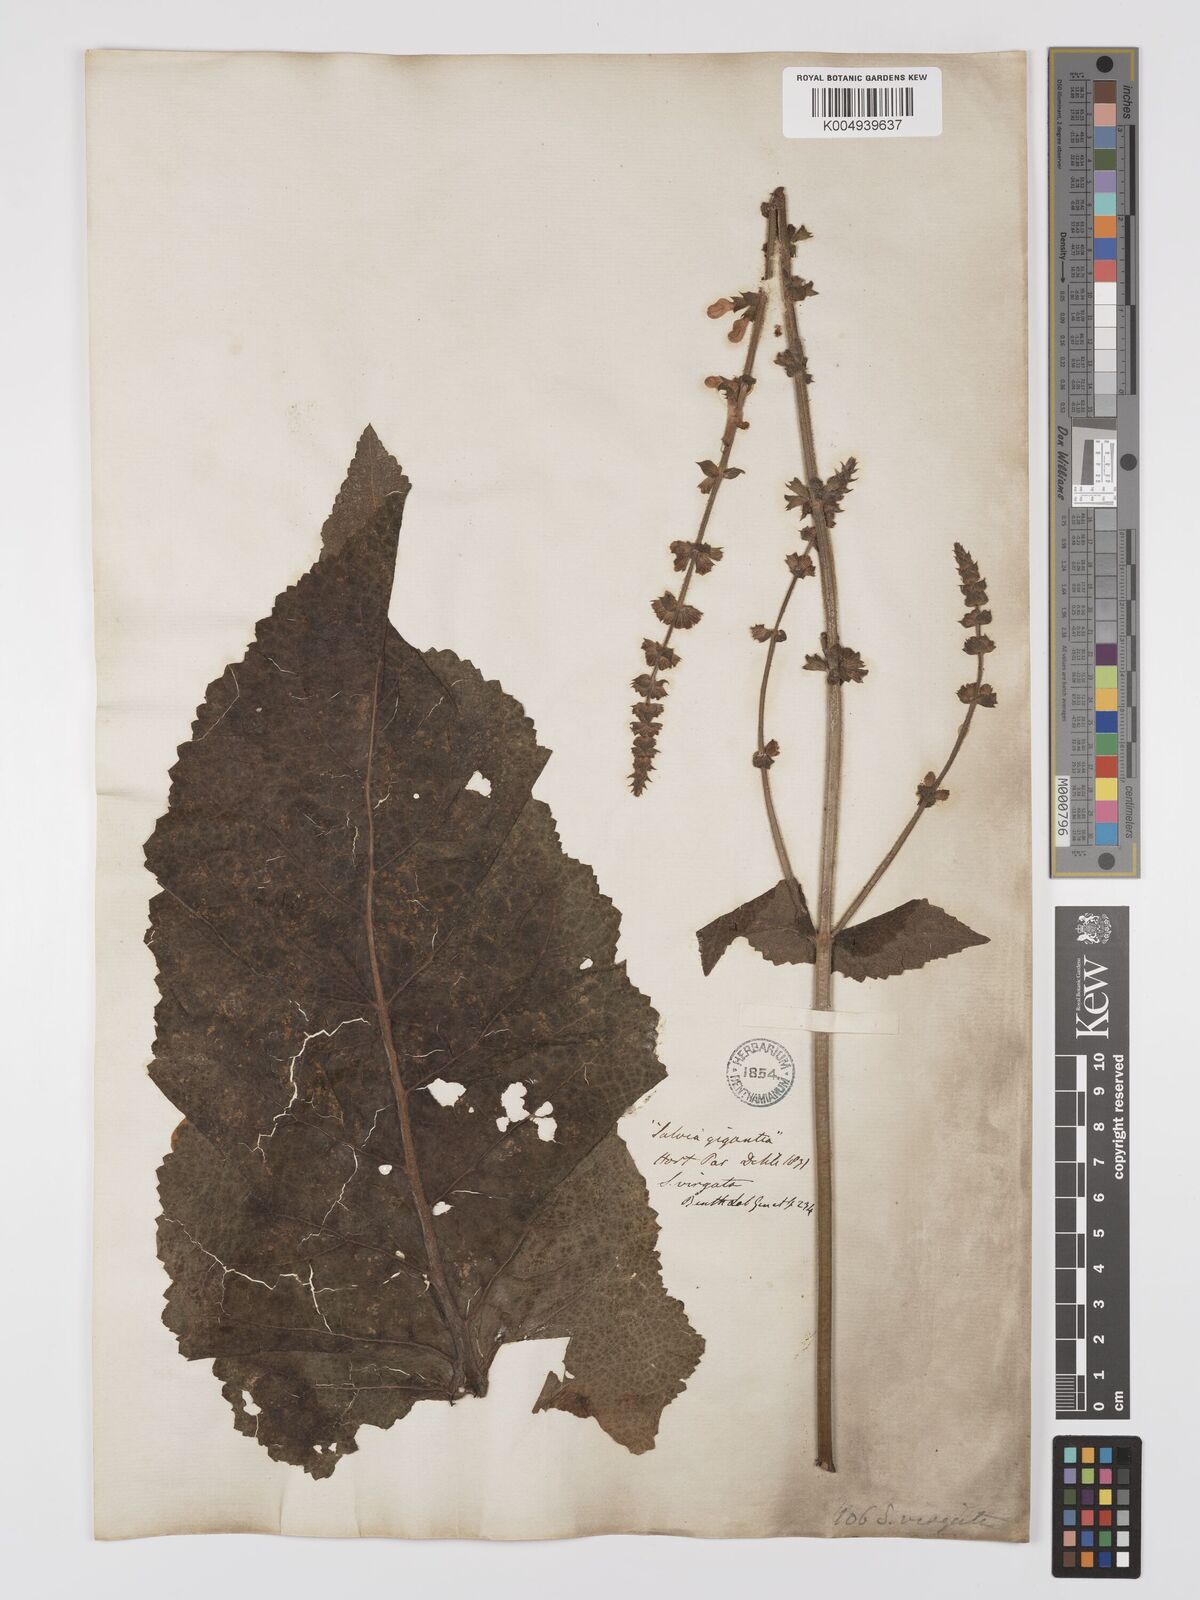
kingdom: Plantae
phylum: Tracheophyta
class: Magnoliopsida
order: Lamiales
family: Lamiaceae
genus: Salvia
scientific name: Salvia
